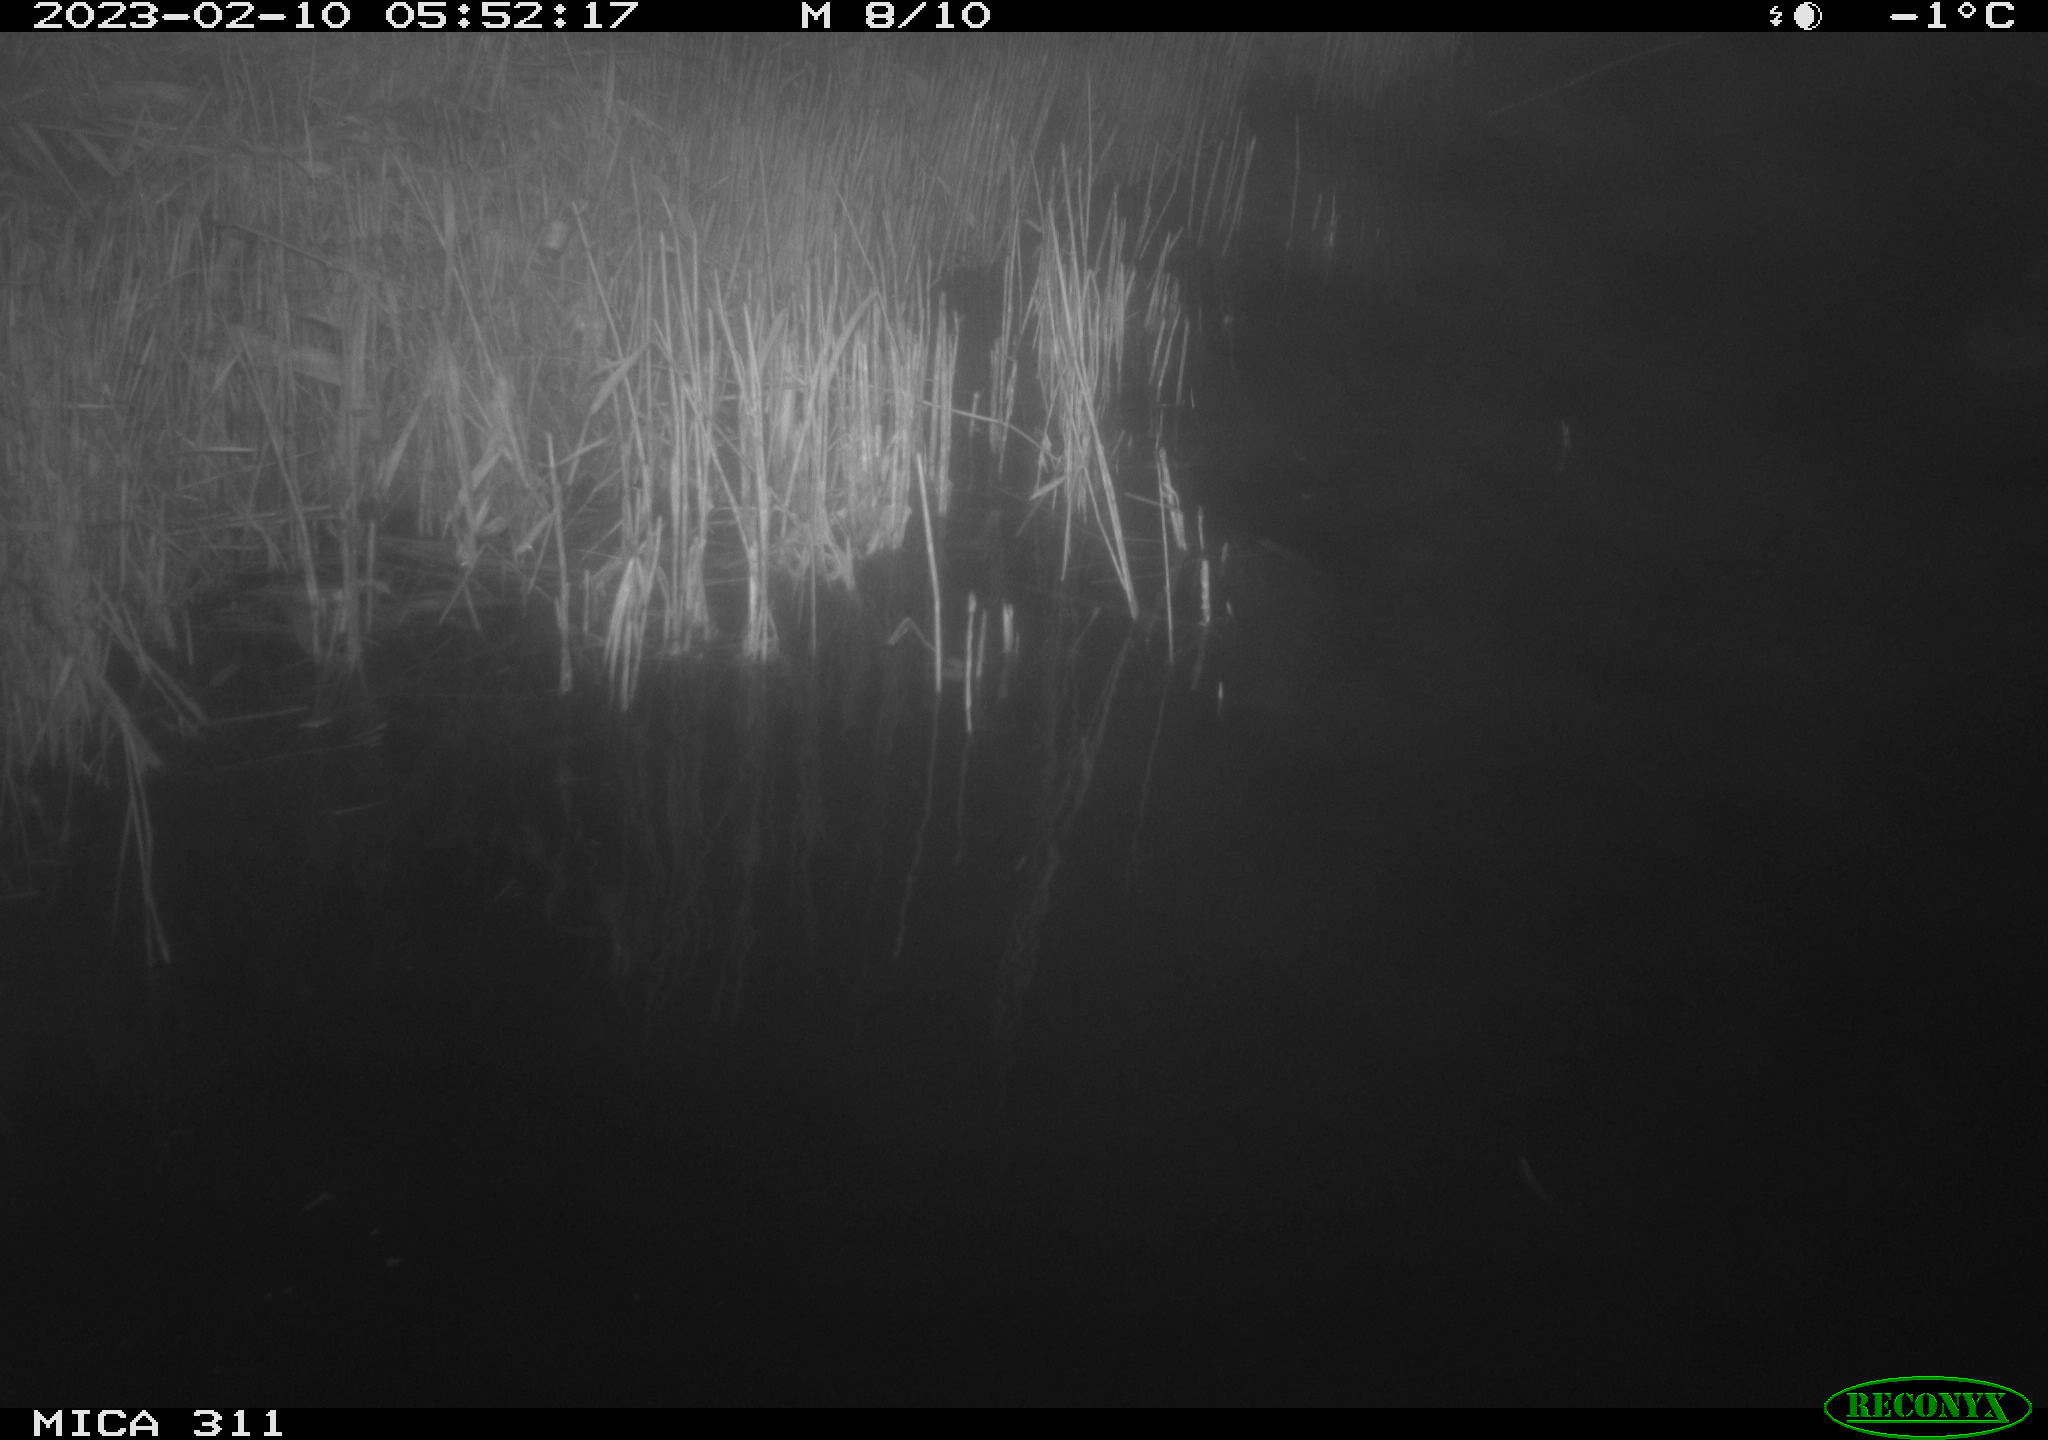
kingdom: Animalia
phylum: Chordata
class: Aves
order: Gruiformes
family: Rallidae
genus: Fulica
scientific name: Fulica atra
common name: Eurasian coot
